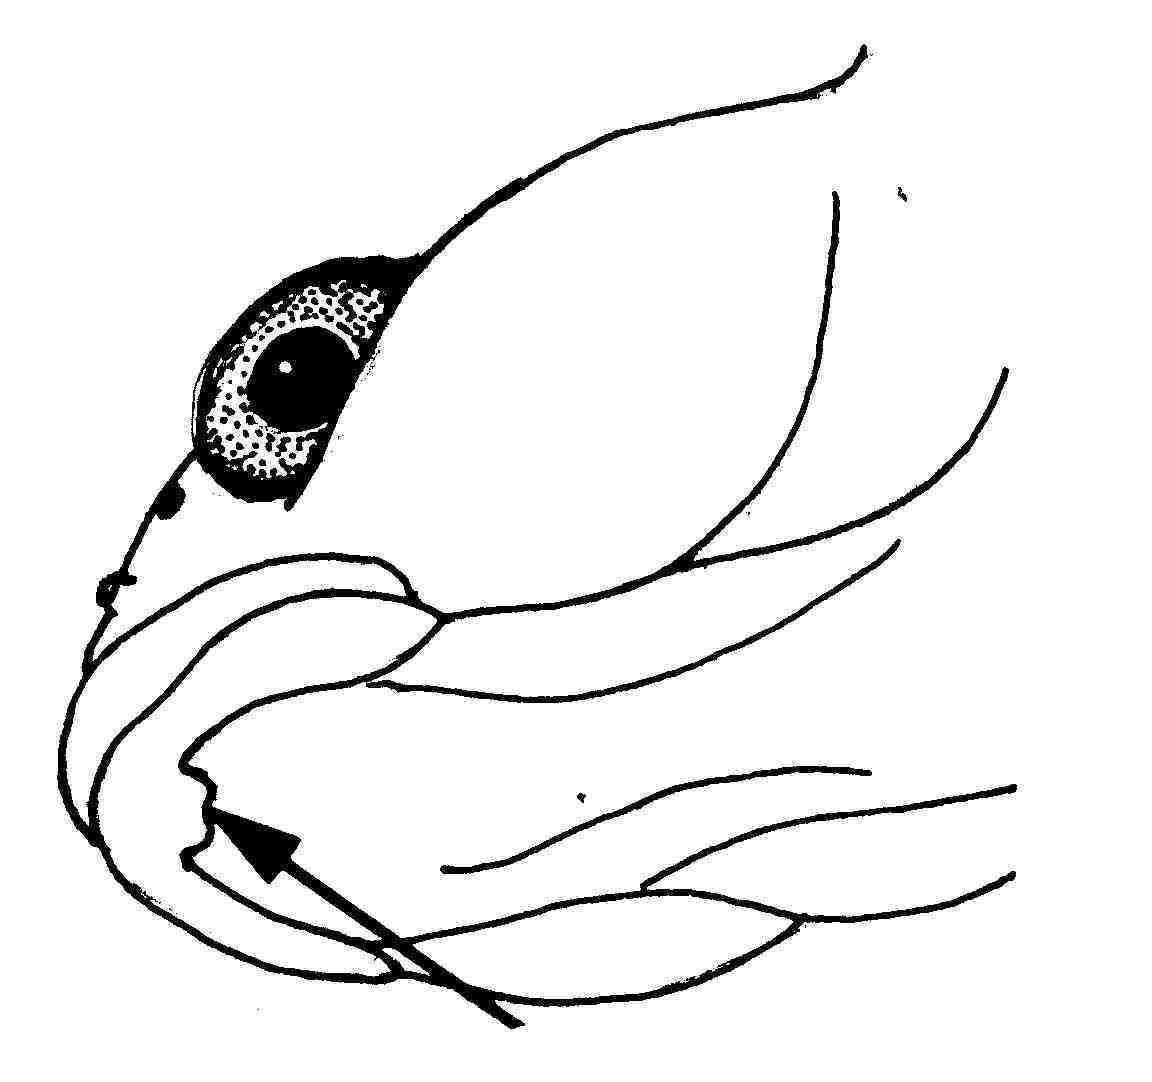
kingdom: Animalia
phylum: Chordata
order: Perciformes
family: Gobiidae
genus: Bathygobius
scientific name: Bathygobius meggitti
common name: Meggitt's goby
